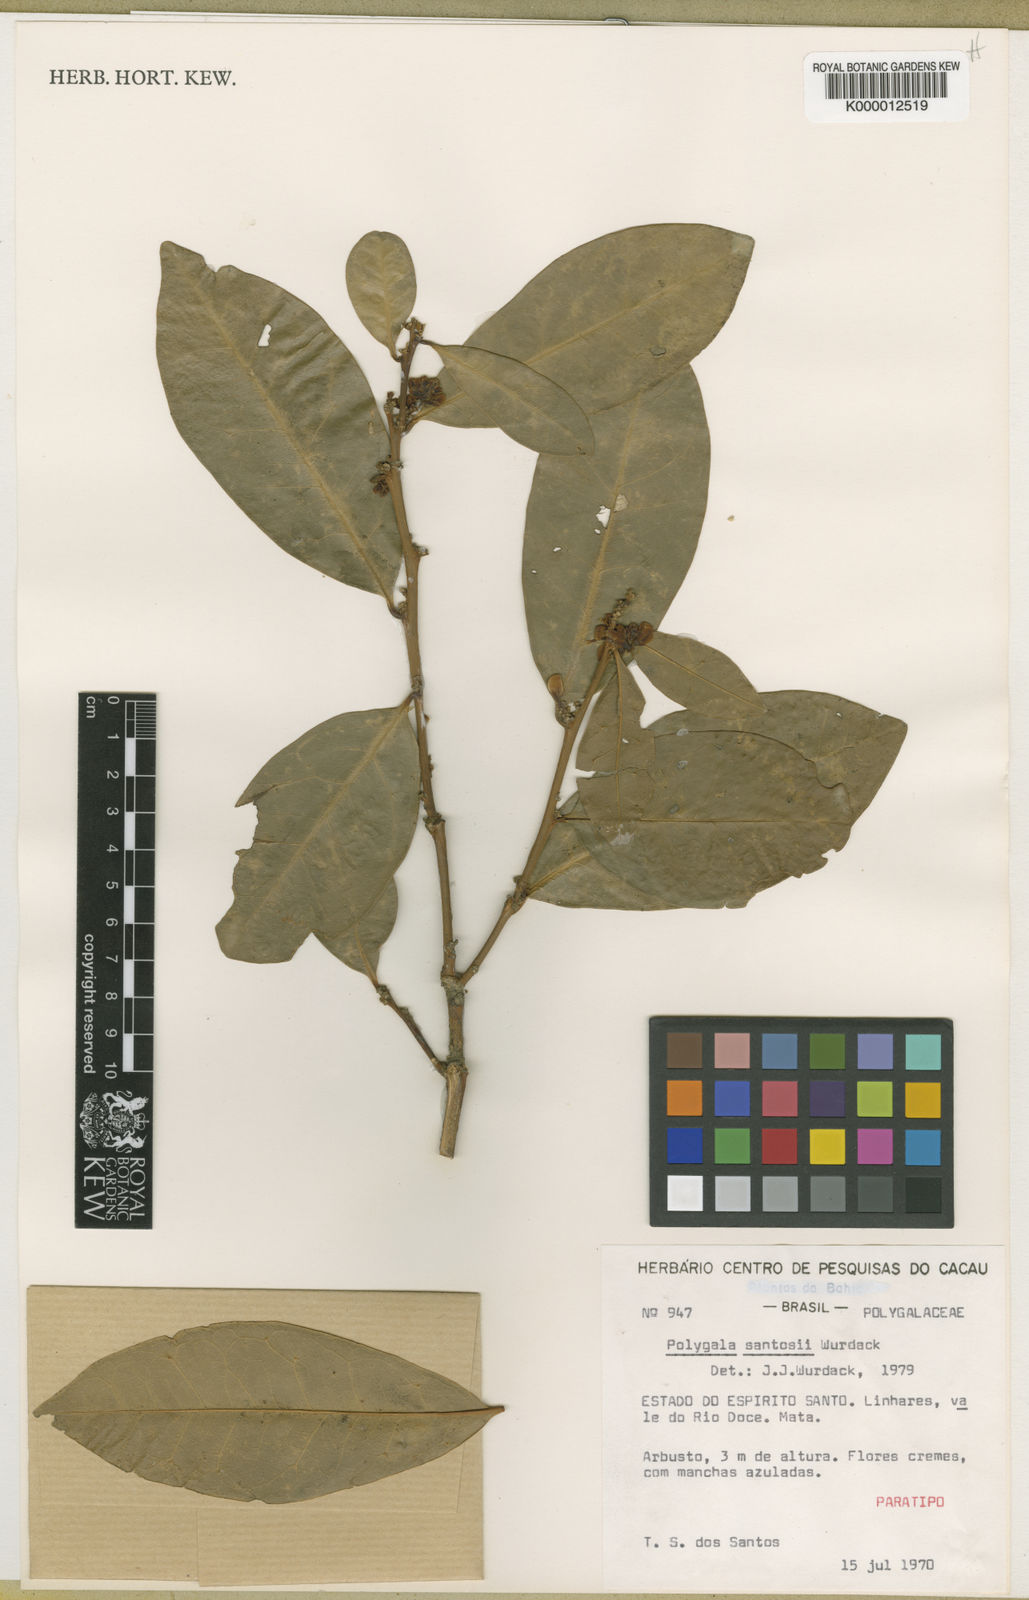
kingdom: Plantae
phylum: Tracheophyta
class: Magnoliopsida
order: Fabales
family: Polygalaceae
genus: Acanthocladus
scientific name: Acanthocladus santosii
